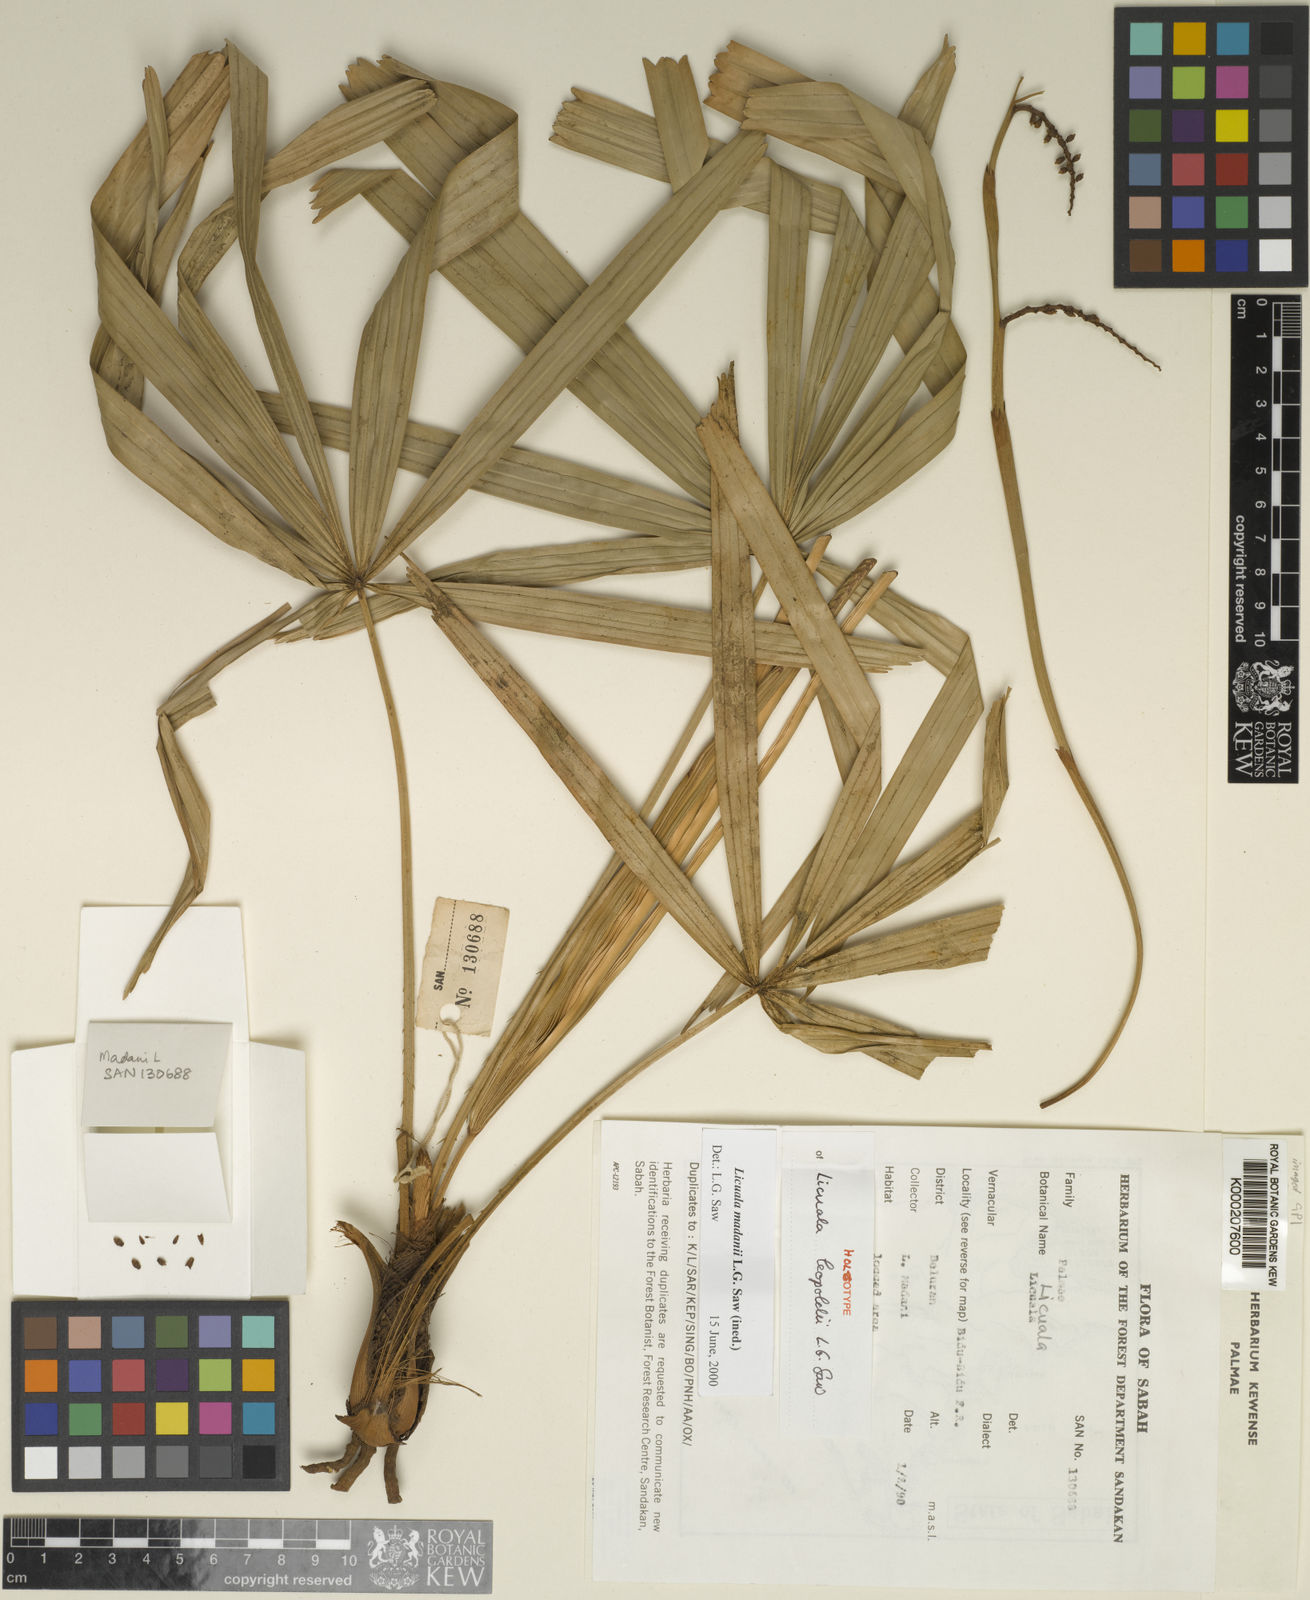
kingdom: Plantae
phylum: Tracheophyta
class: Liliopsida
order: Arecales
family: Arecaceae
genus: Licuala
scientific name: Licuala leopoldii
